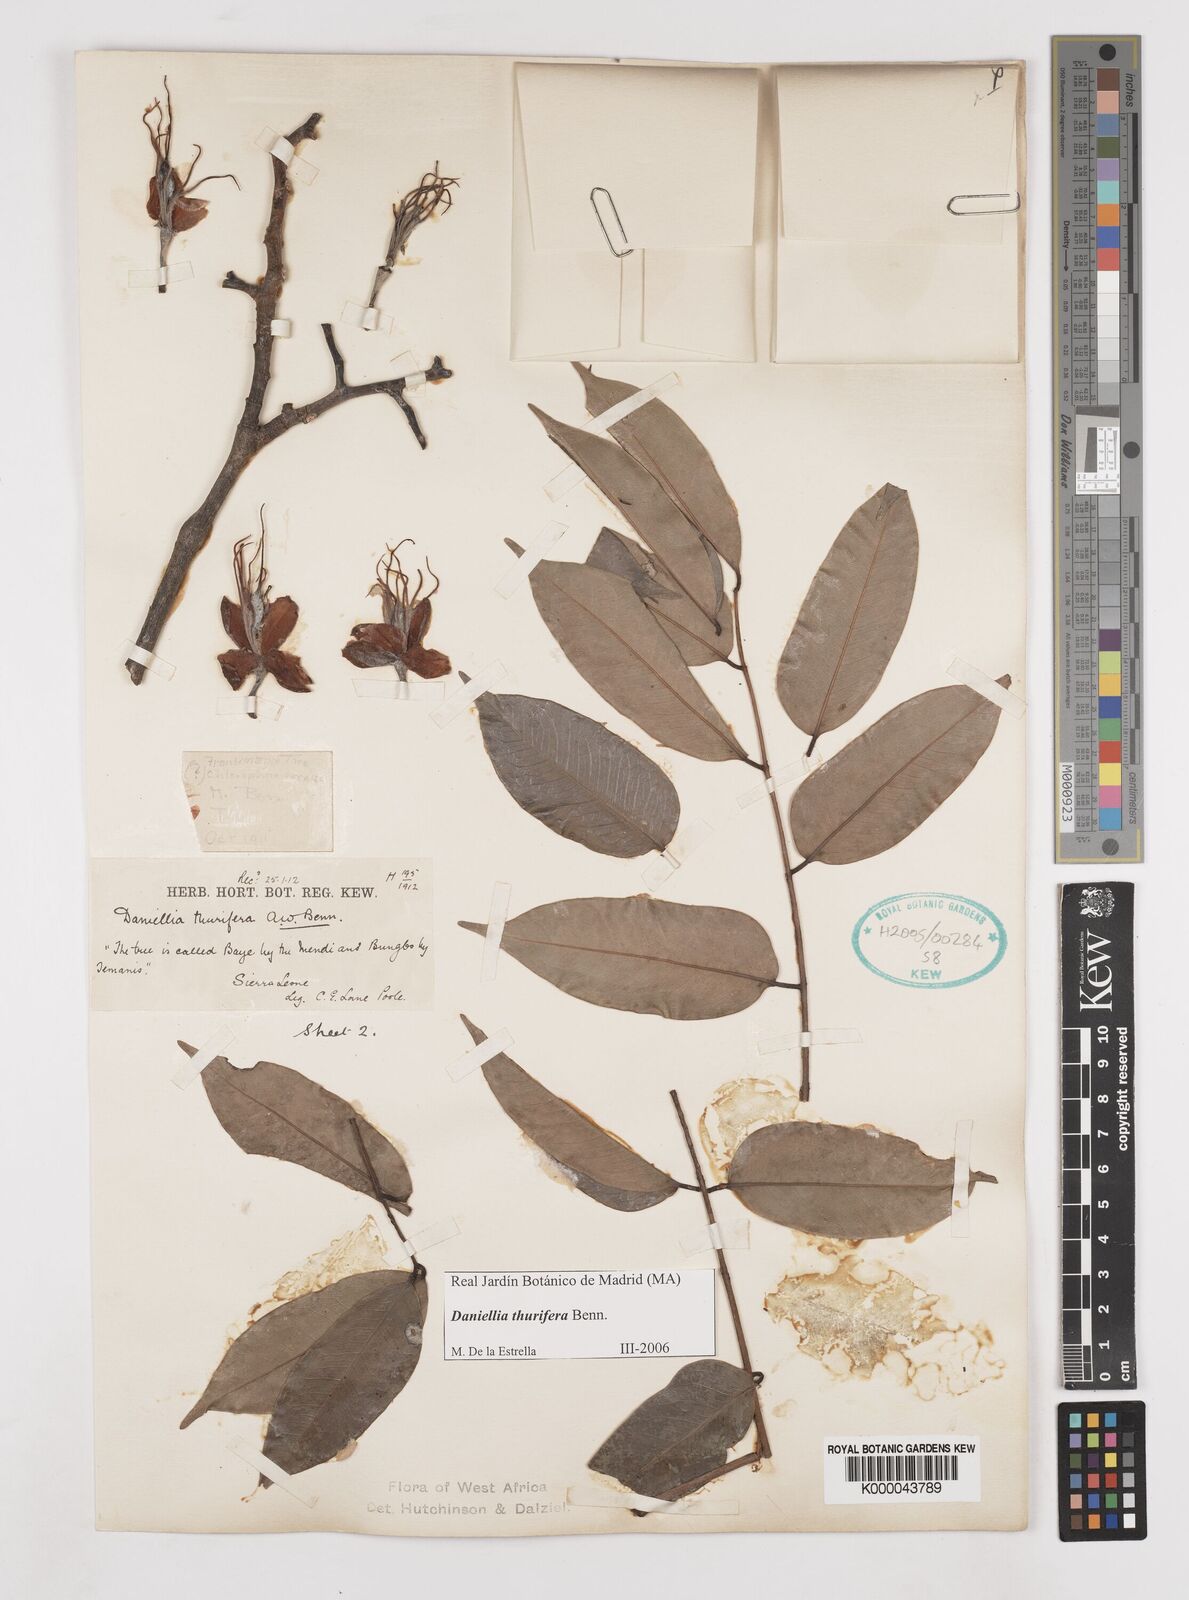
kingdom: Plantae
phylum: Tracheophyta
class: Magnoliopsida
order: Fabales
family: Fabaceae
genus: Daniellia
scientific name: Daniellia thurifera
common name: Sudan copal
